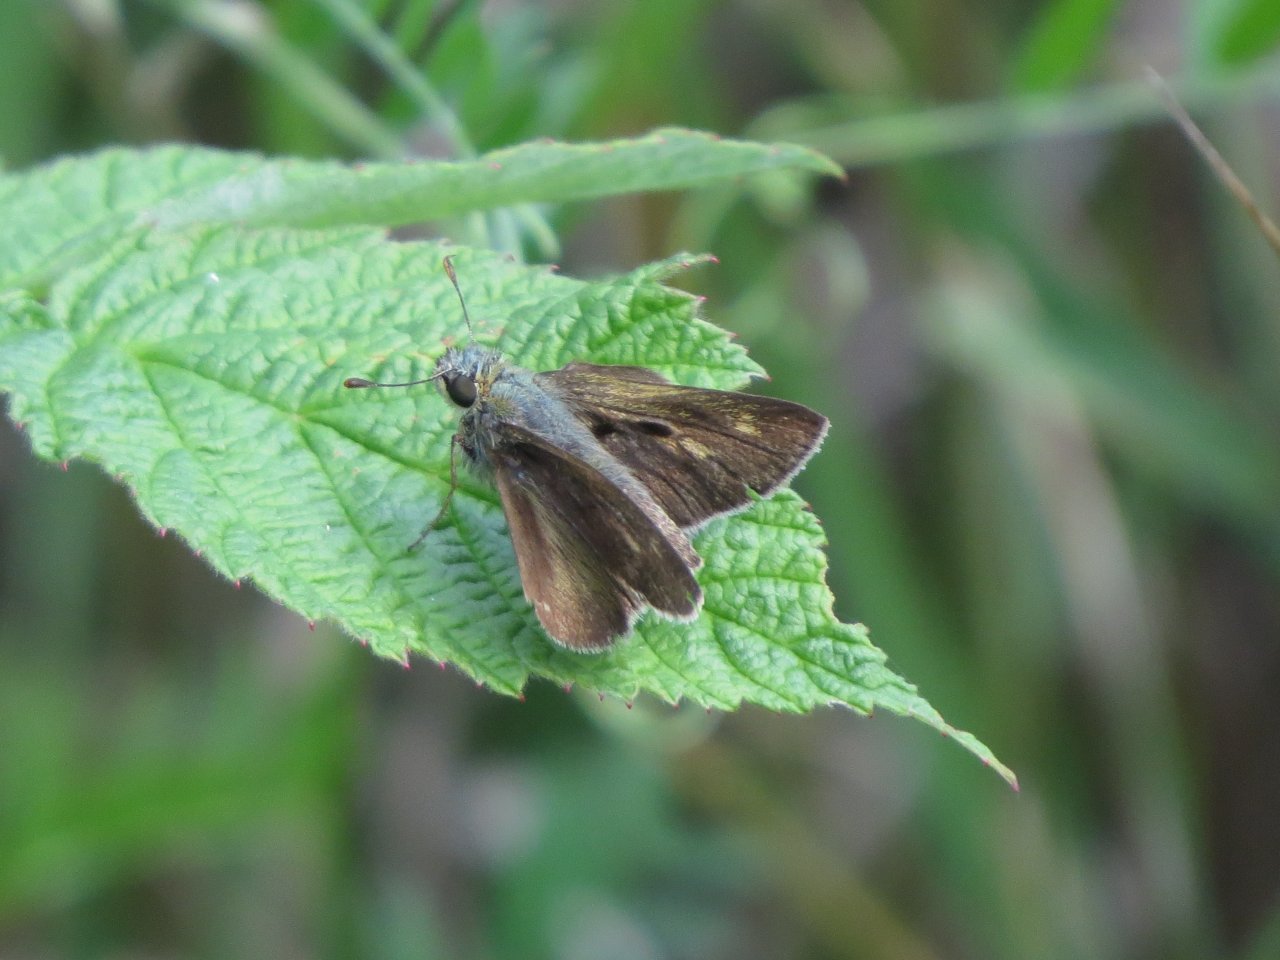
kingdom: Animalia
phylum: Arthropoda
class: Insecta
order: Lepidoptera
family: Hesperiidae
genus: Polites
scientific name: Polites egeremet
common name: Northern Broken-Dash
